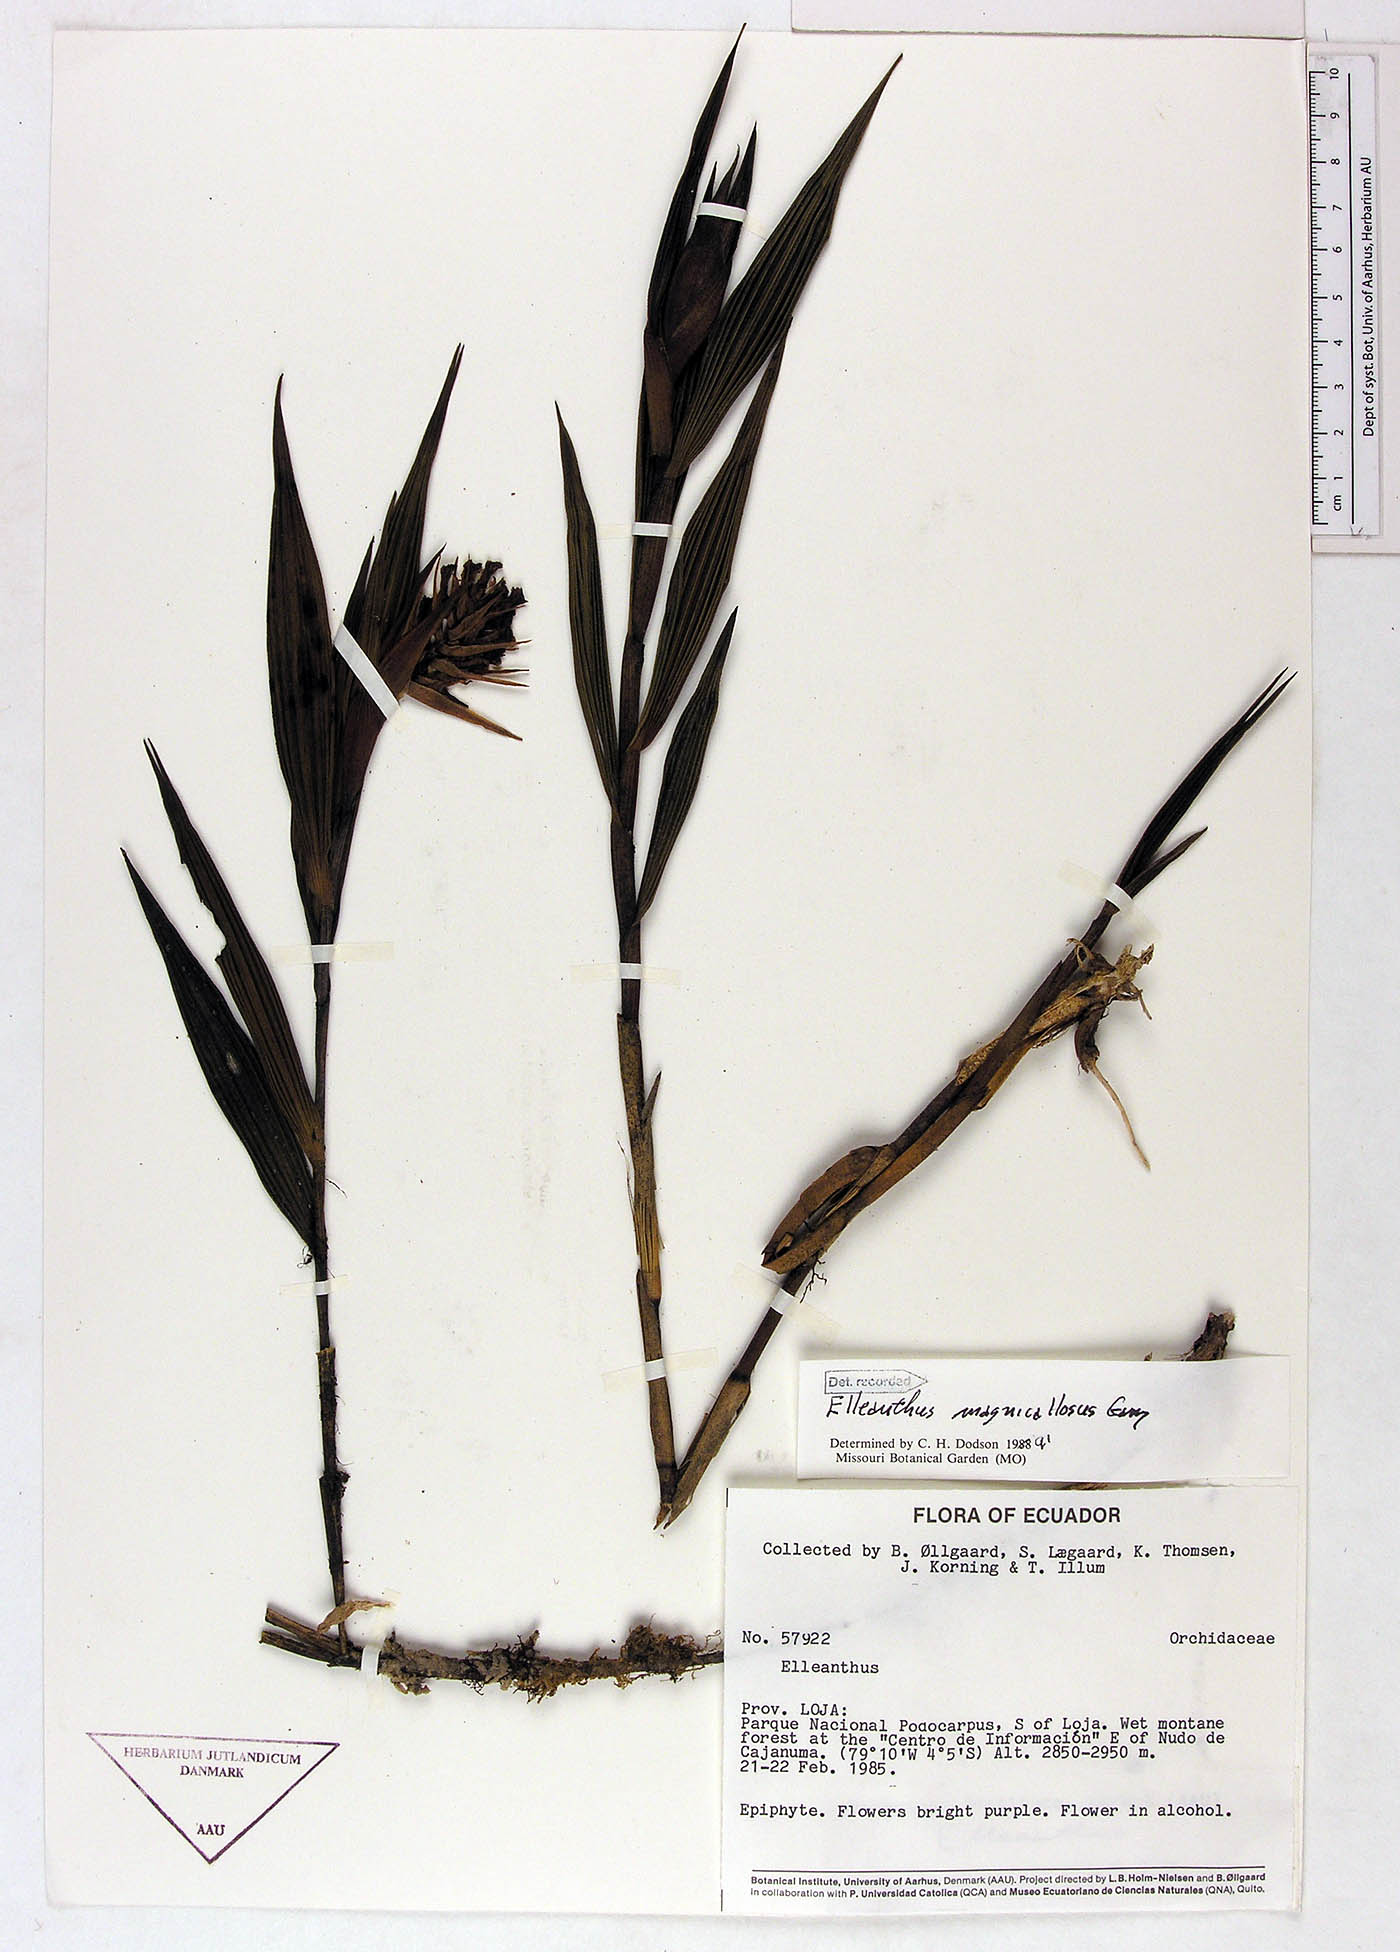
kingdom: Plantae
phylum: Tracheophyta
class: Liliopsida
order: Asparagales
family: Orchidaceae
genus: Elleanthus
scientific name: Elleanthus magnicallosus
